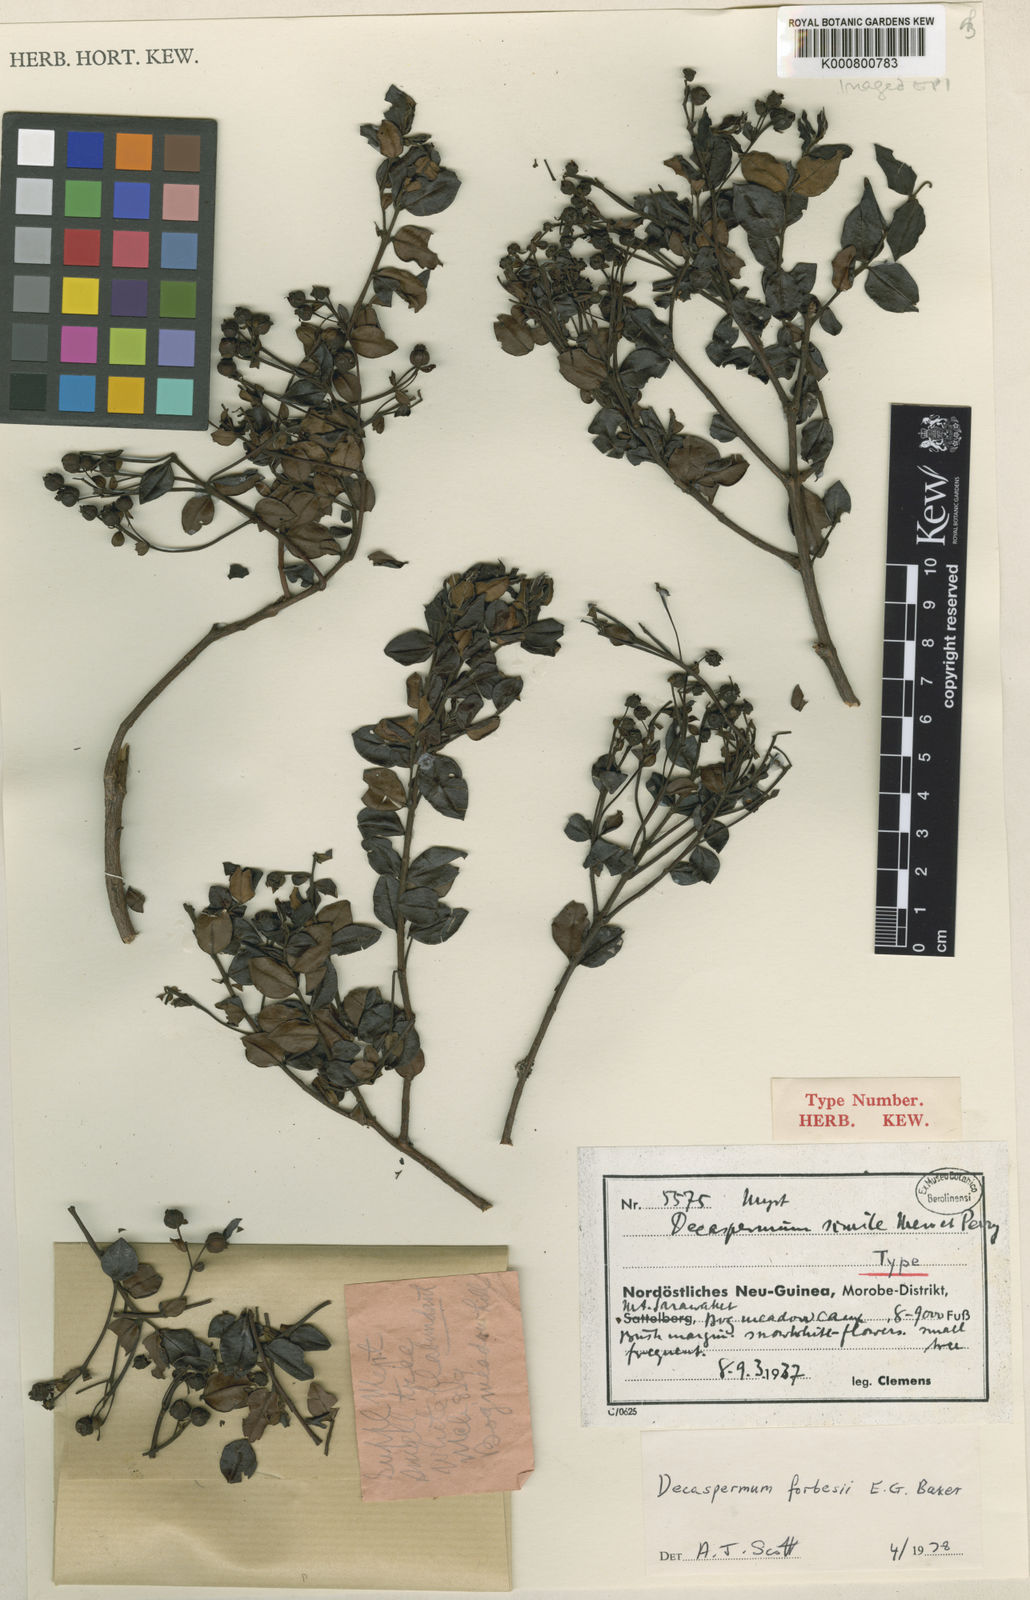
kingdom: Plantae
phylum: Tracheophyta
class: Magnoliopsida
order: Myrtales
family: Myrtaceae
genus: Decaspermum
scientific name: Decaspermum forbesii
